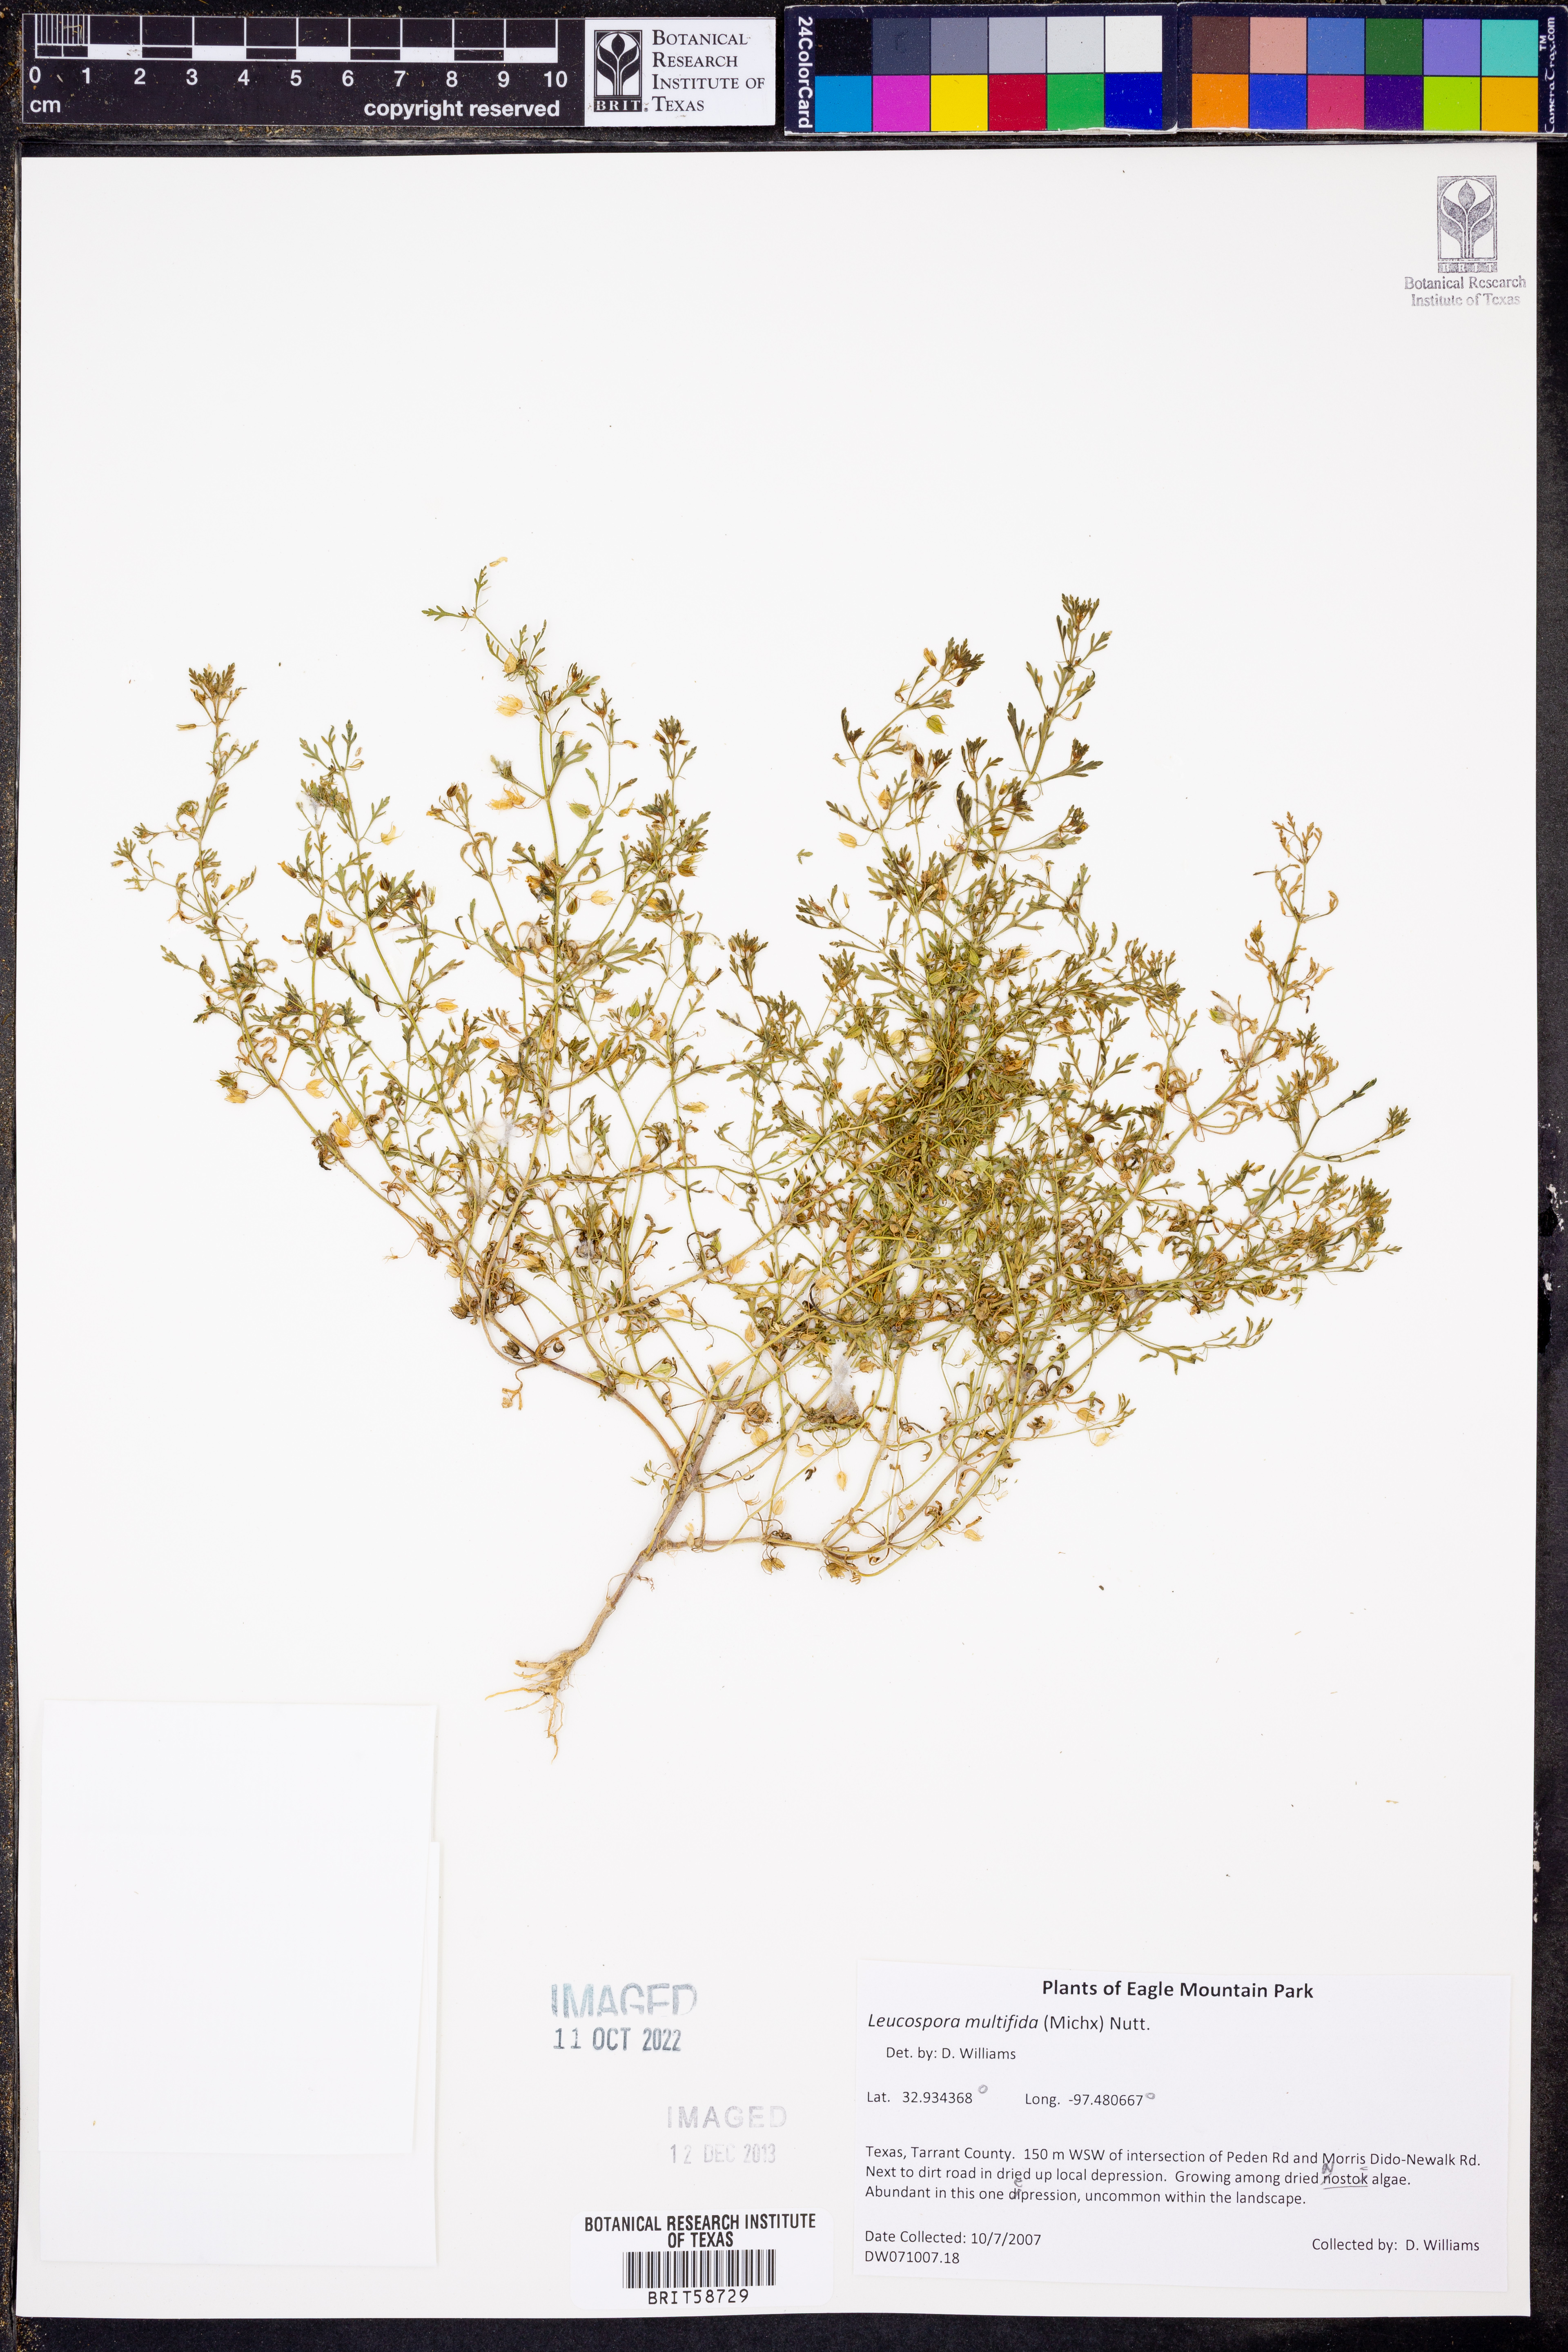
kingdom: Plantae
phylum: Tracheophyta
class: Magnoliopsida
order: Lamiales
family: Plantaginaceae
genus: Leucospora
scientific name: Leucospora multifida
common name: Narrow-leaf paleseed
